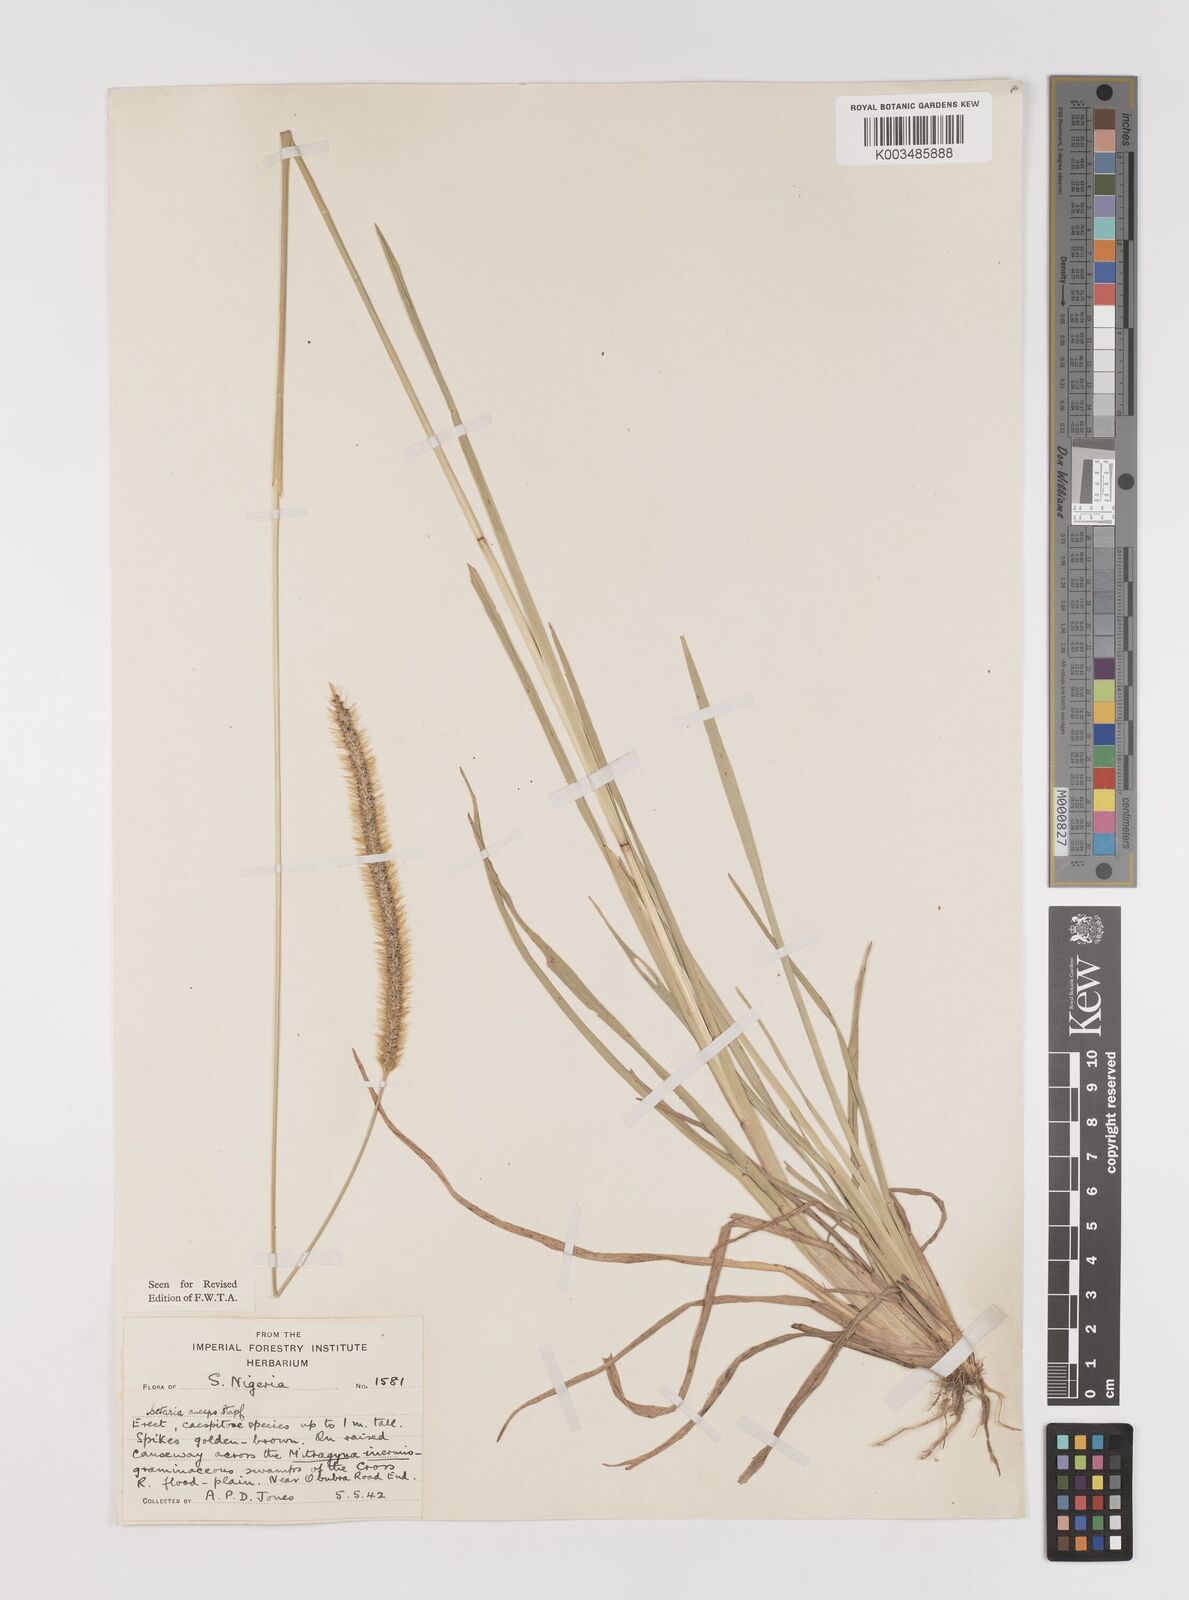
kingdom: Plantae
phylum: Tracheophyta
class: Liliopsida
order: Poales
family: Poaceae
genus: Setaria
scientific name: Setaria sphacelata
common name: African bristlegrass
